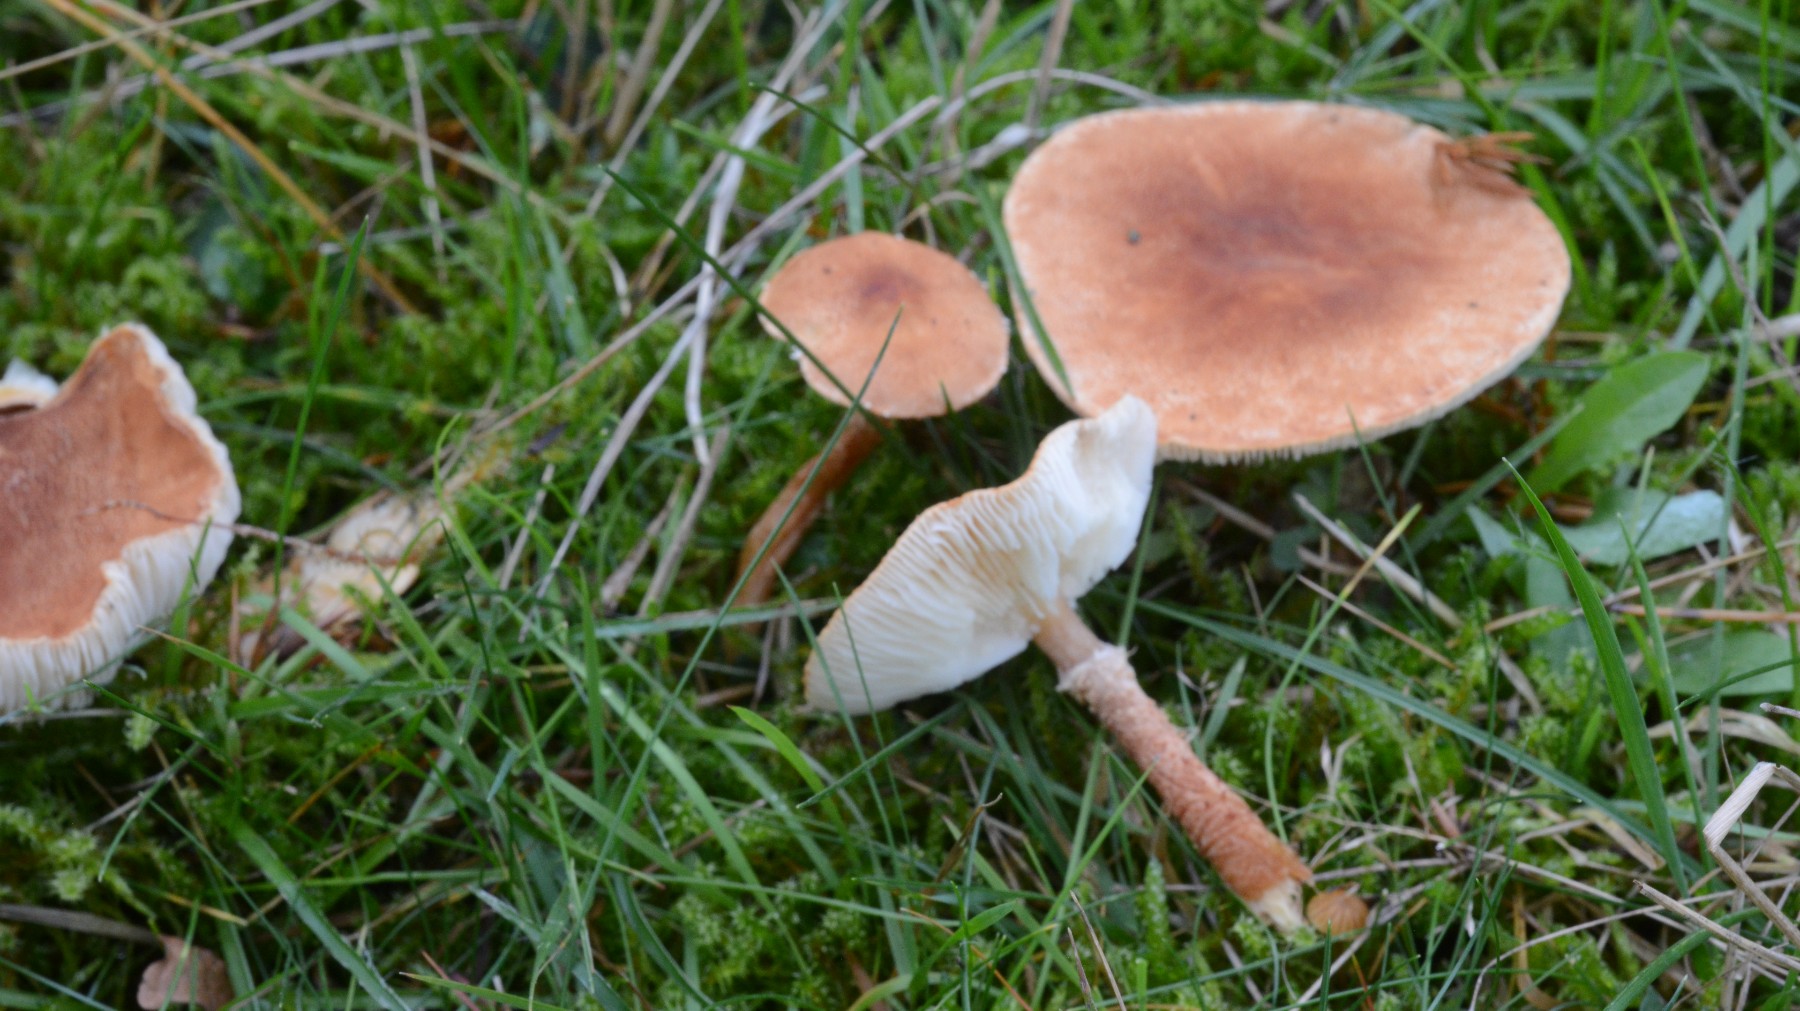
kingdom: Fungi
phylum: Basidiomycota
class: Agaricomycetes
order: Agaricales
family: Agaricaceae
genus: Cystodermella
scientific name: Cystodermella granulosa
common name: kliddet grynhat
